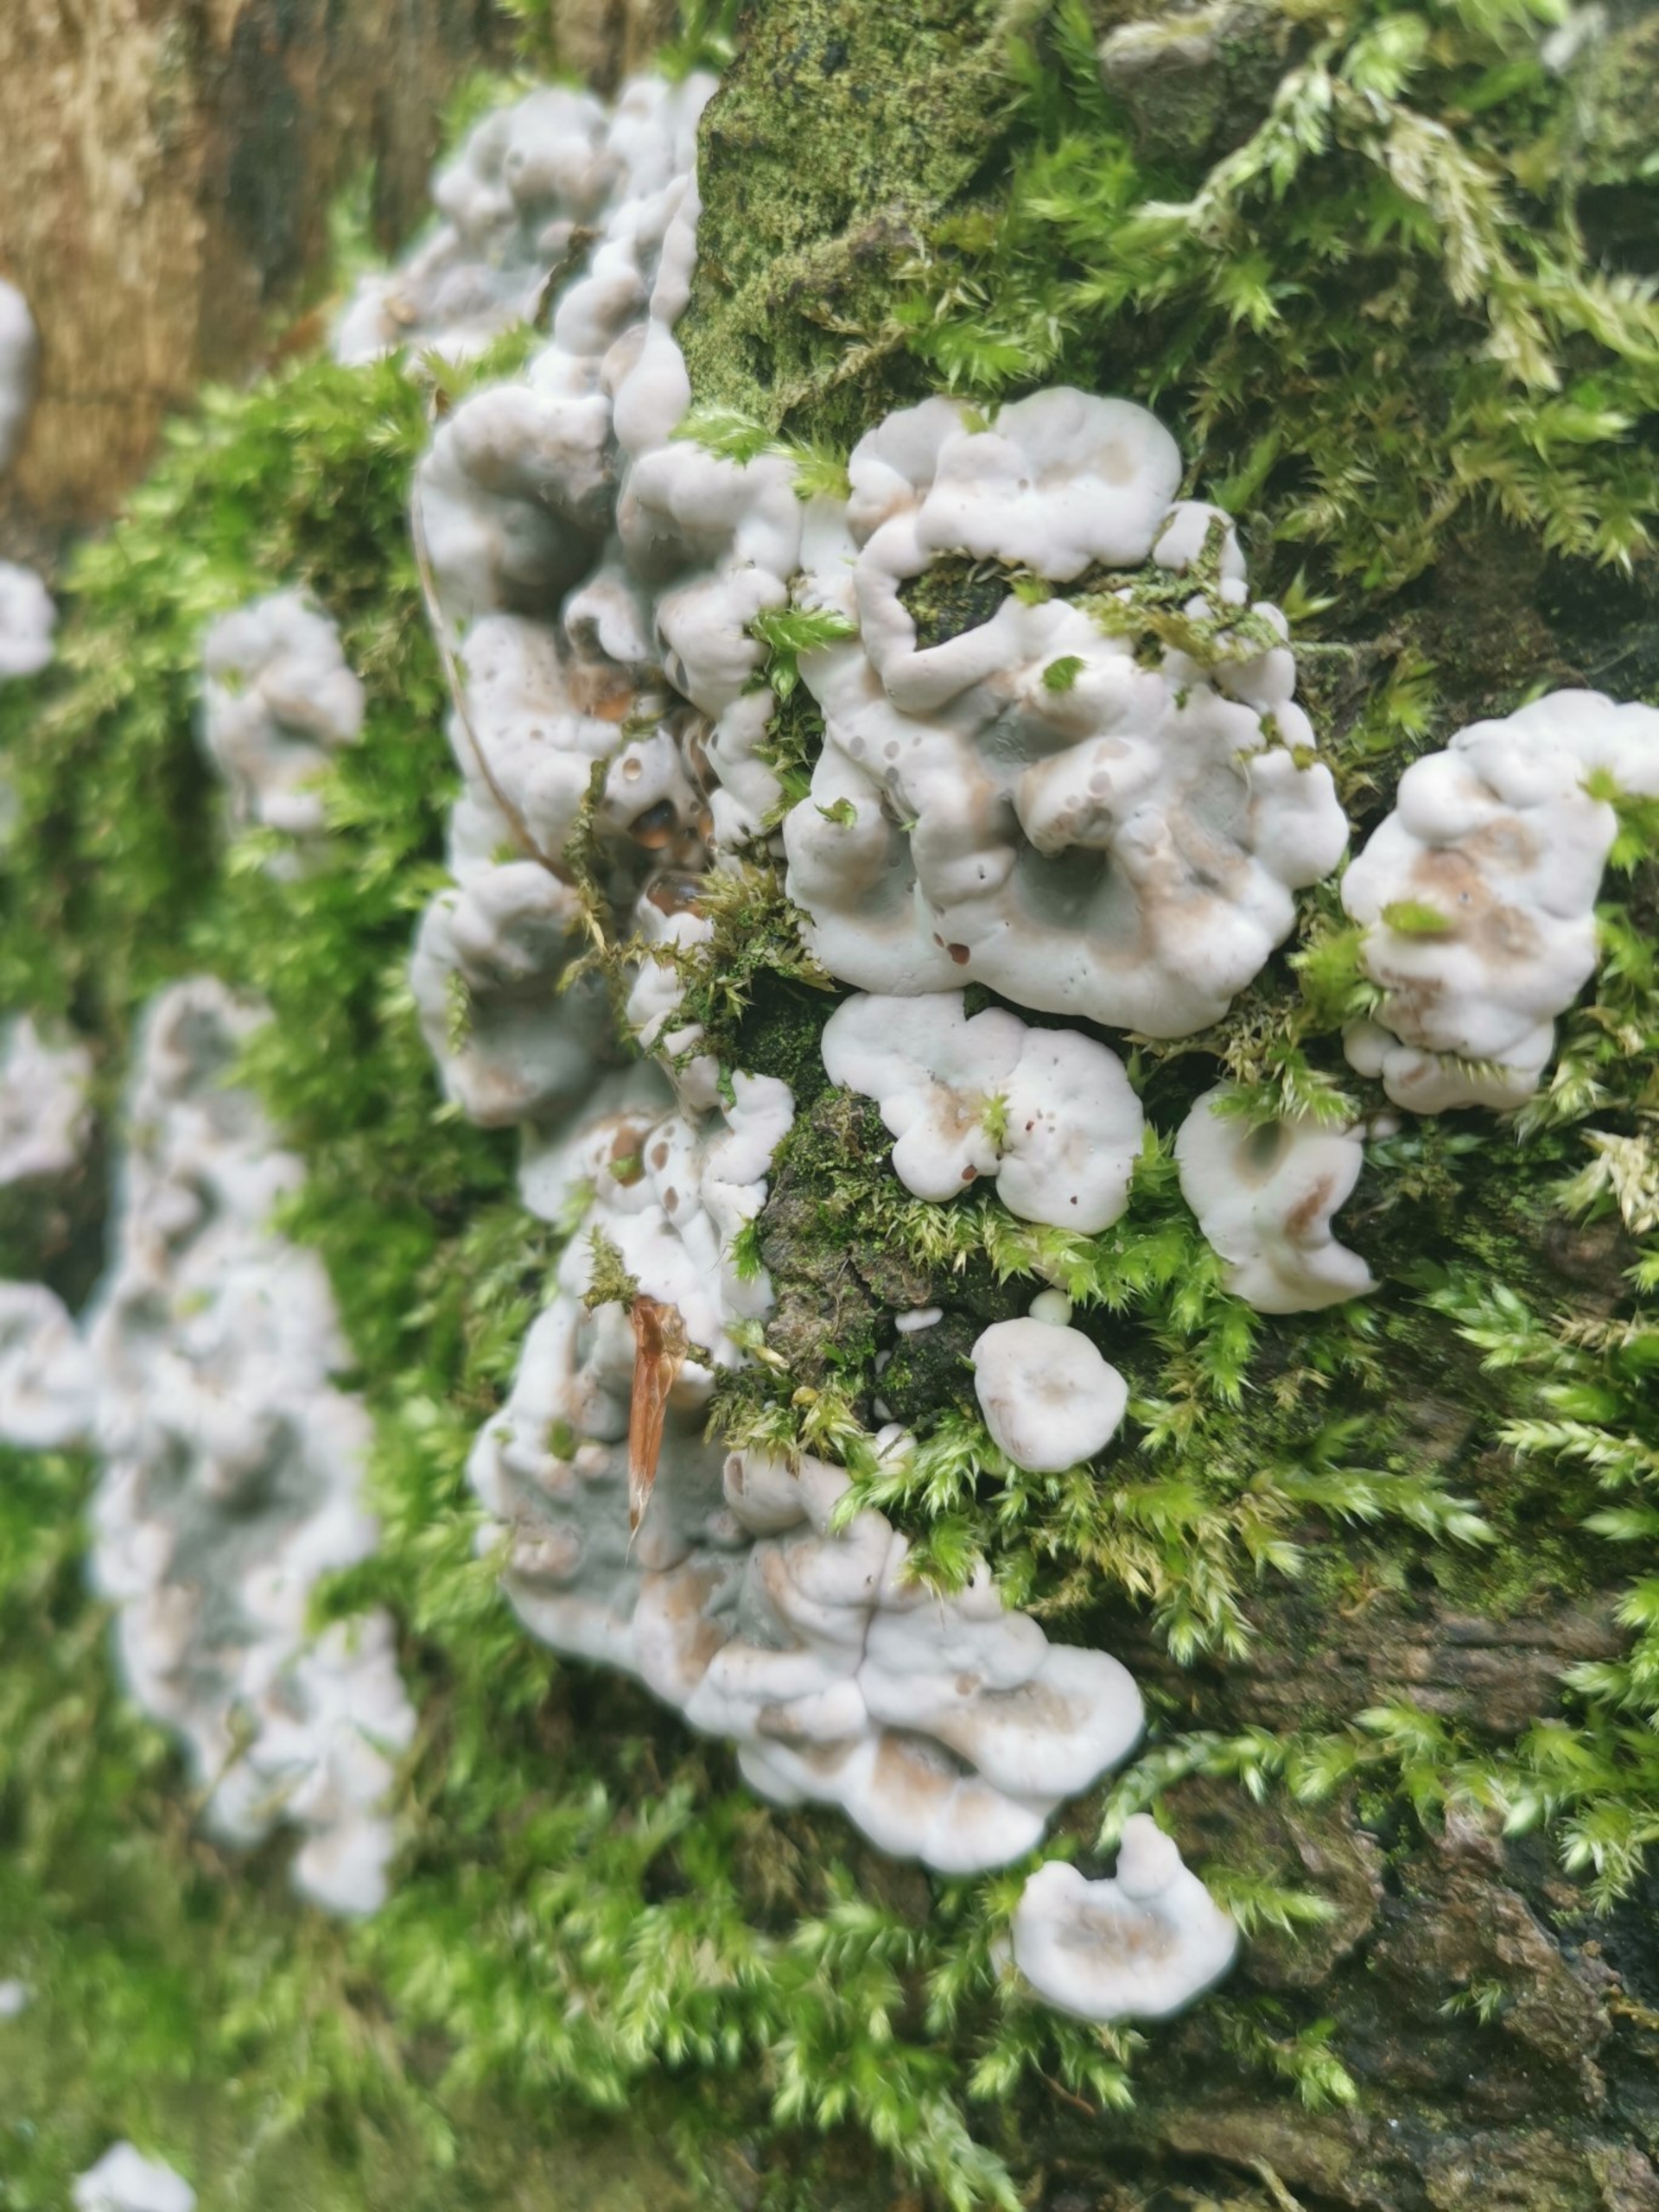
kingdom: Fungi
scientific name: Fungi
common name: Svamperiget
